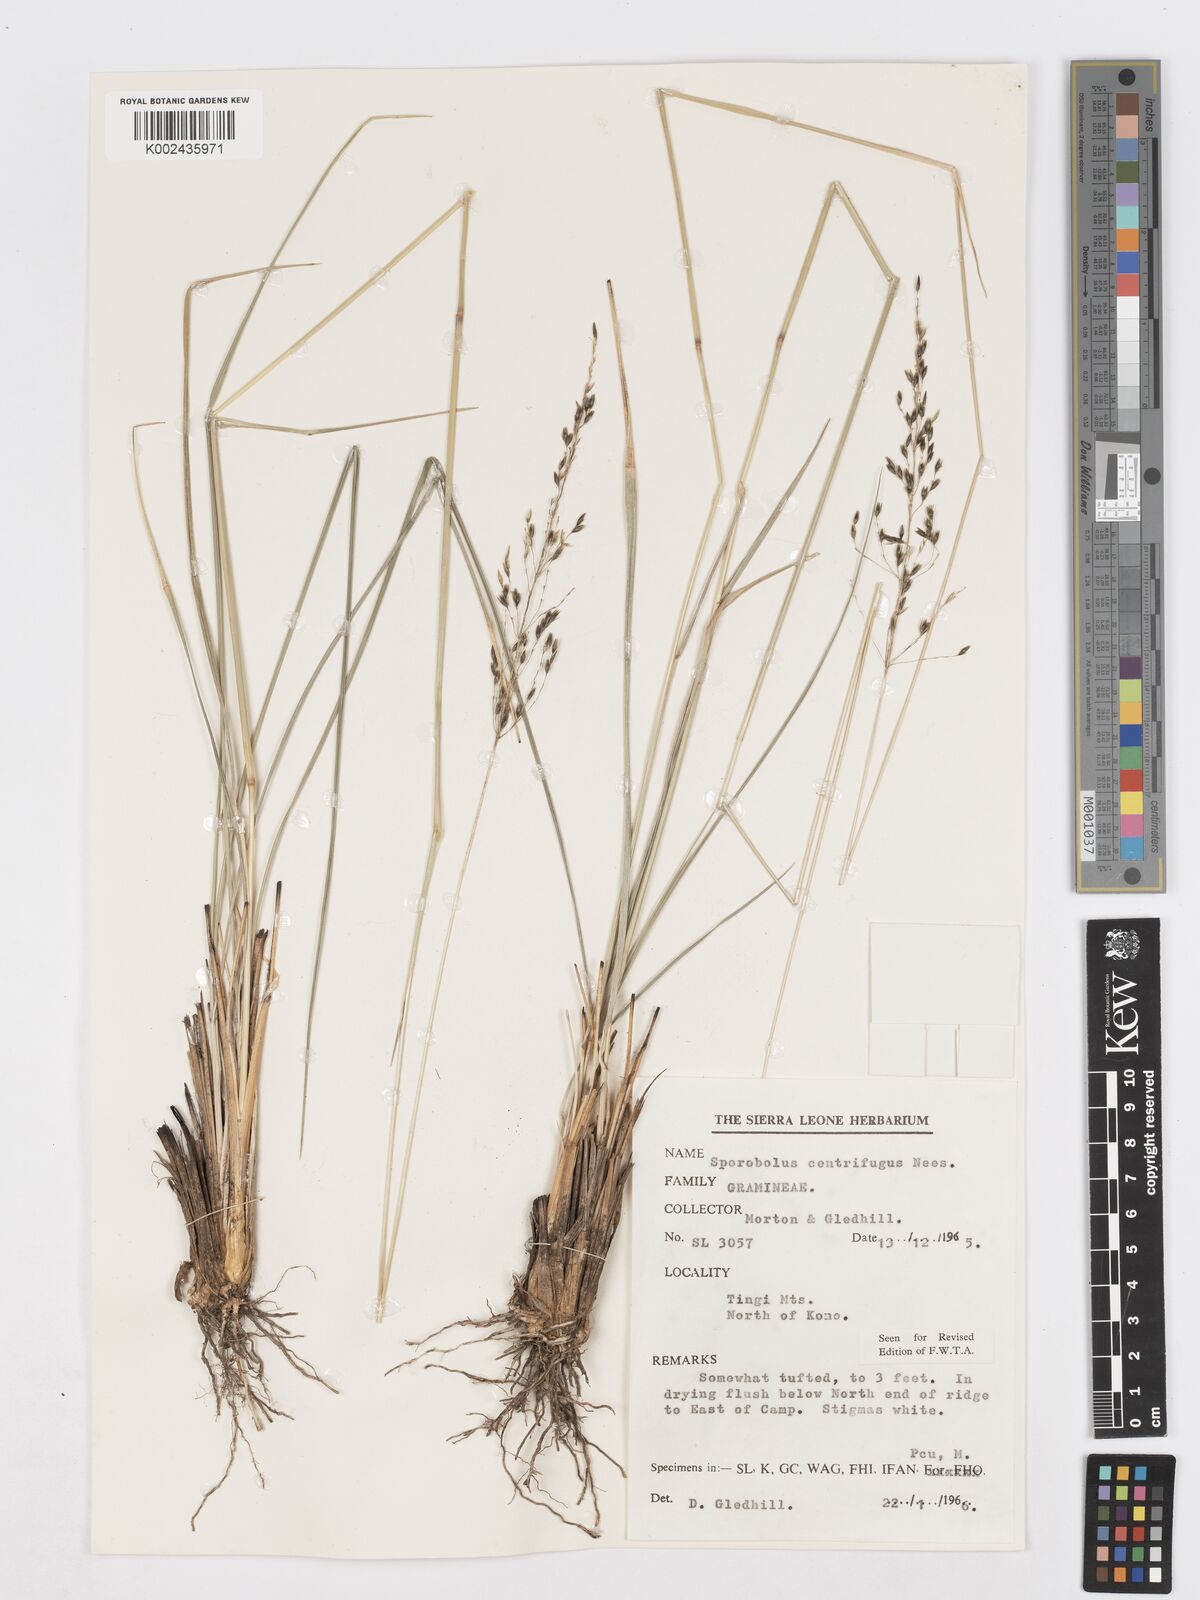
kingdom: Plantae
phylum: Tracheophyta
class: Liliopsida
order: Poales
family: Poaceae
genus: Sporobolus
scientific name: Sporobolus subulatus
